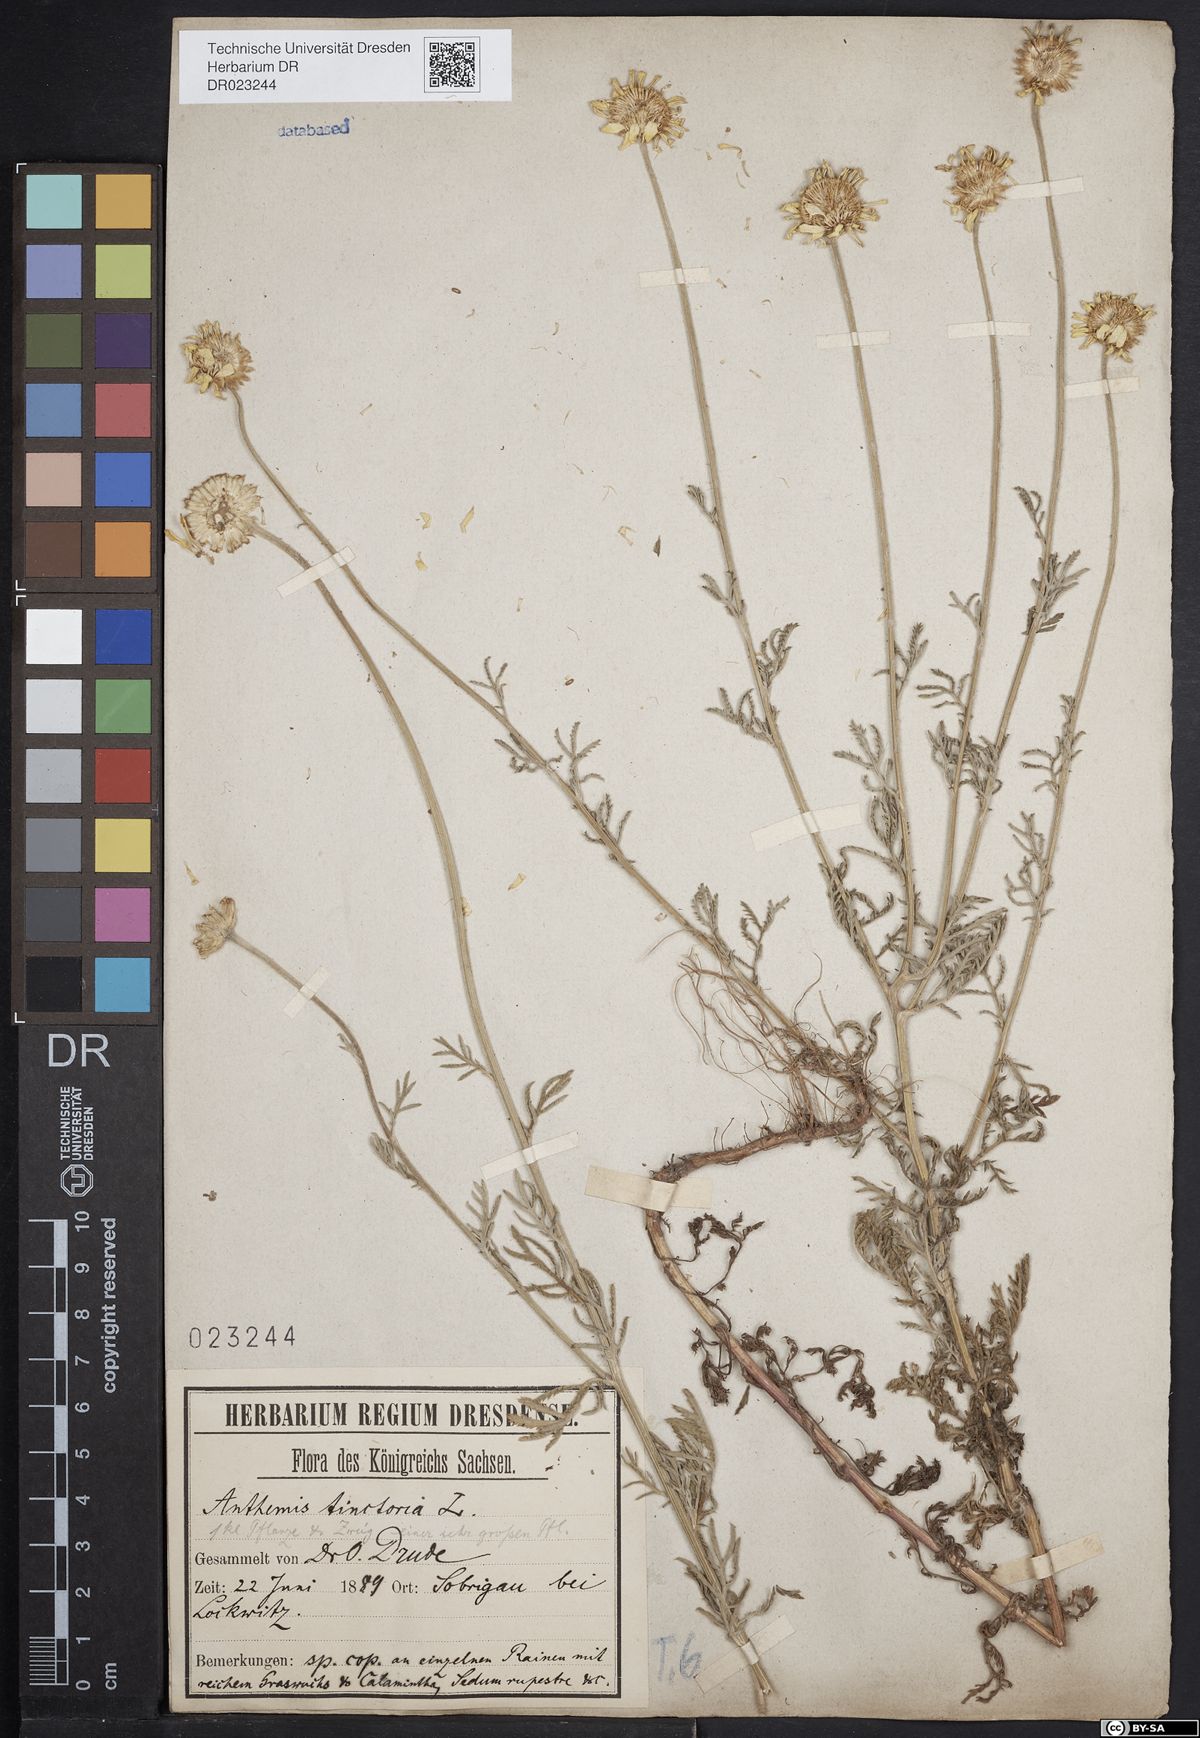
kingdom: Plantae
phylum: Tracheophyta
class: Magnoliopsida
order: Asterales
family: Asteraceae
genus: Cota
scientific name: Cota tinctoria
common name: Golden chamomile
